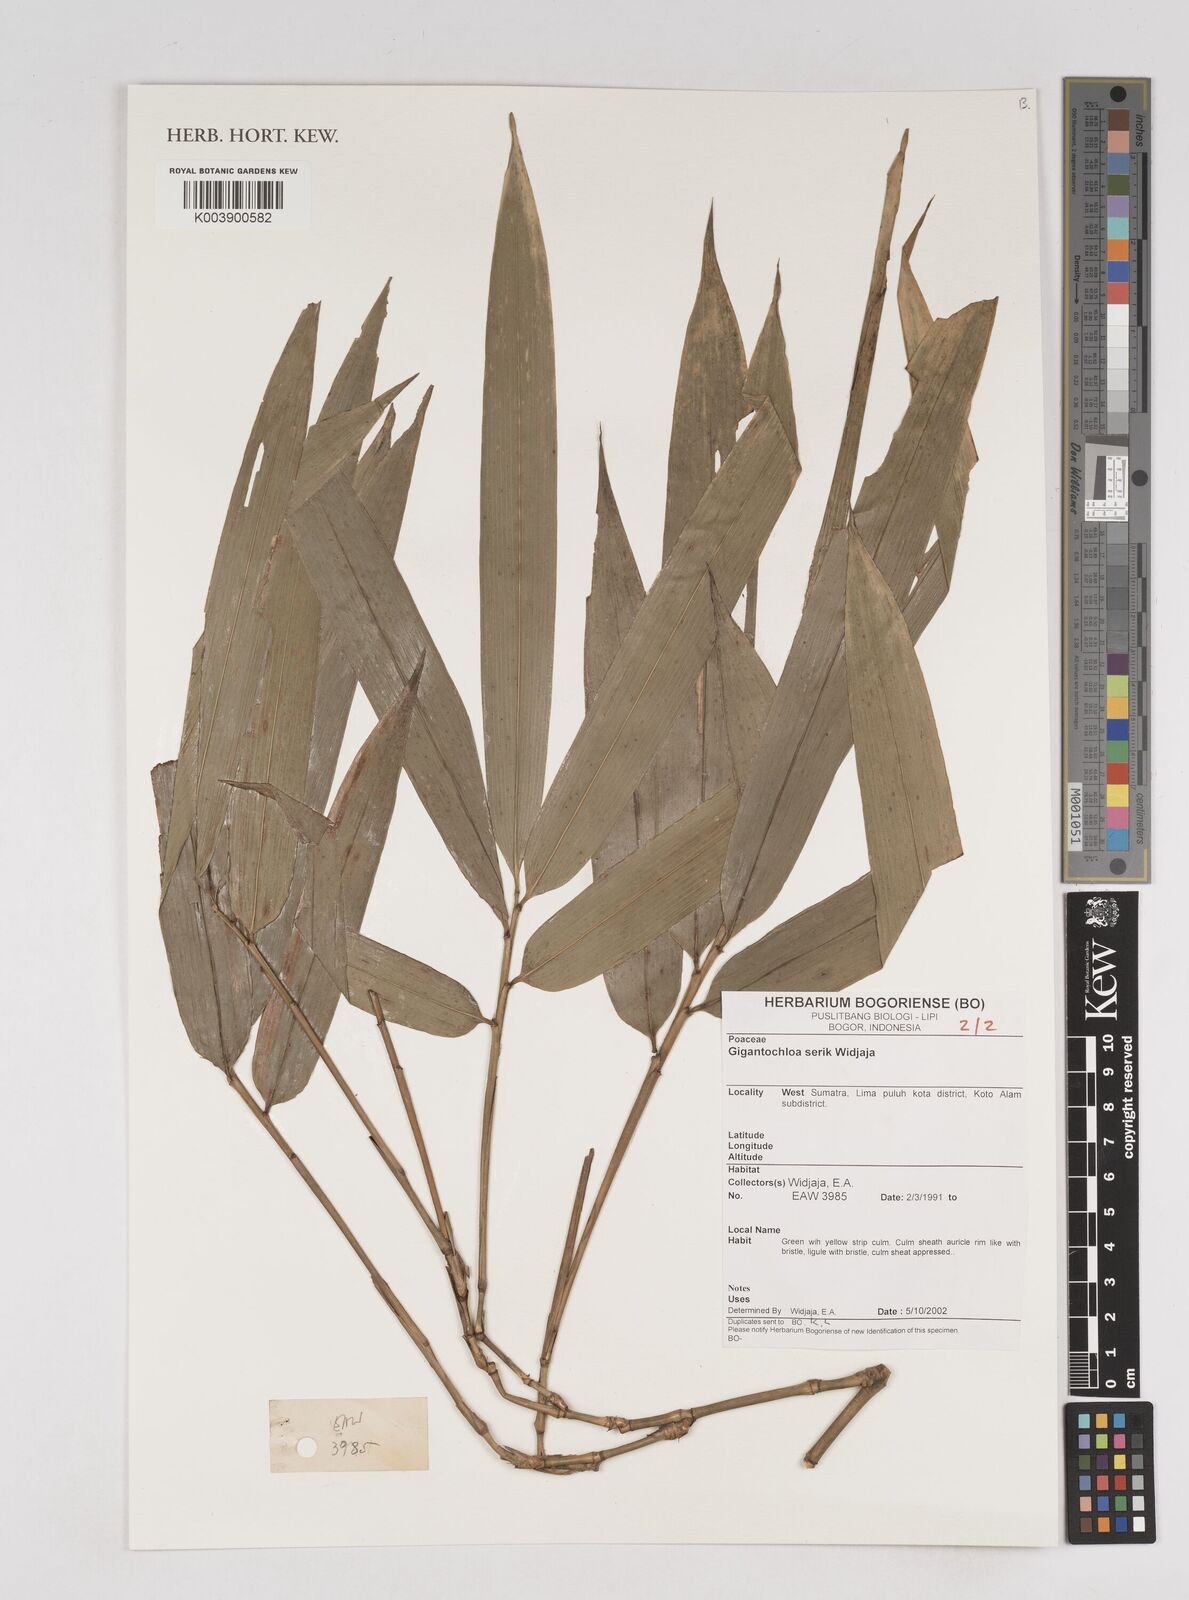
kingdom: Plantae
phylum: Tracheophyta
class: Liliopsida
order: Poales
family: Poaceae
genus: Gigantochloa
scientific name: Gigantochloa serik
